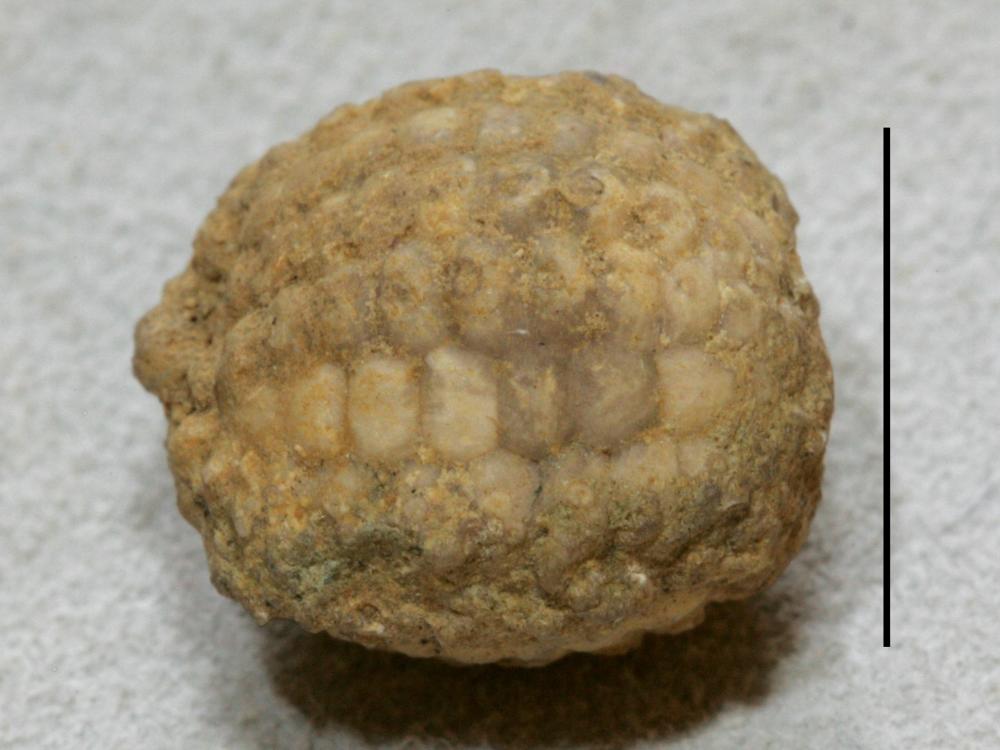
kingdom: Animalia
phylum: Echinodermata
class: Echinoidea
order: Bothriocidaroida
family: Bothriocidaridae
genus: Bothriocidaris
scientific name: Bothriocidaris
